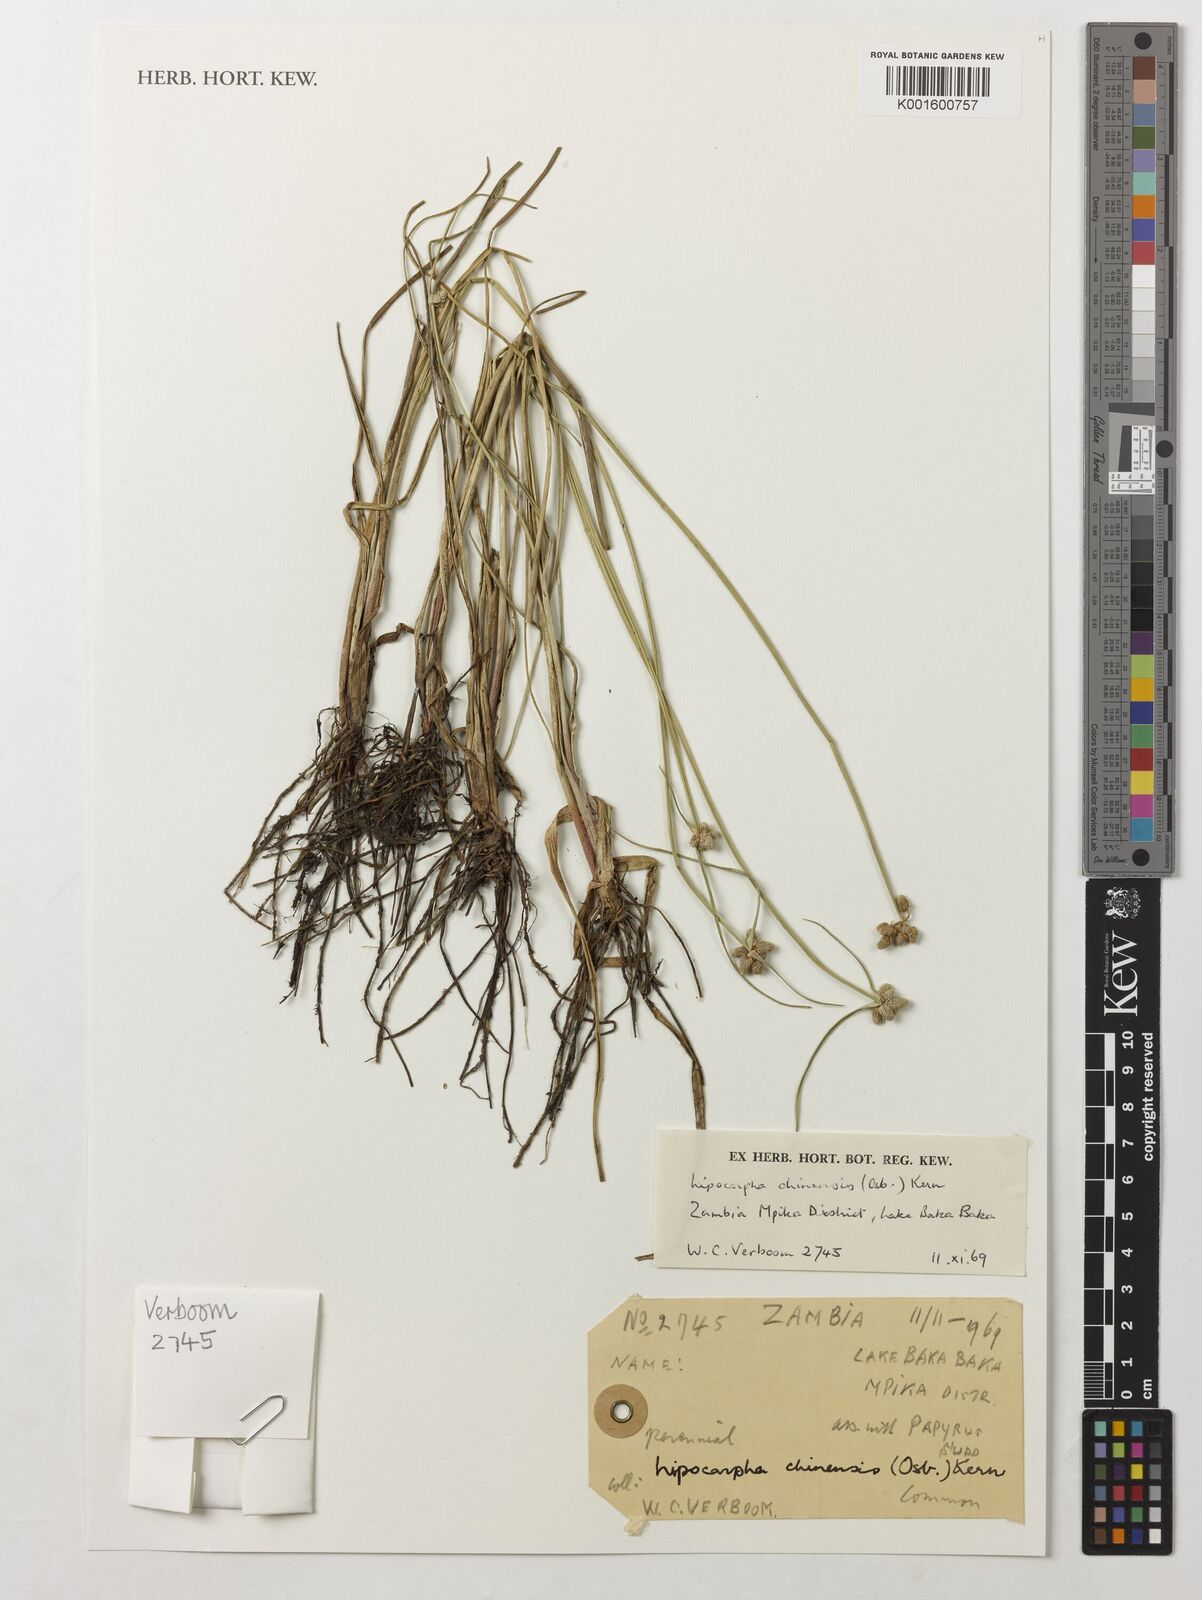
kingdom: Plantae
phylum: Tracheophyta
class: Liliopsida
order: Poales
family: Cyperaceae
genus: Cyperus
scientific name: Cyperus albescens
